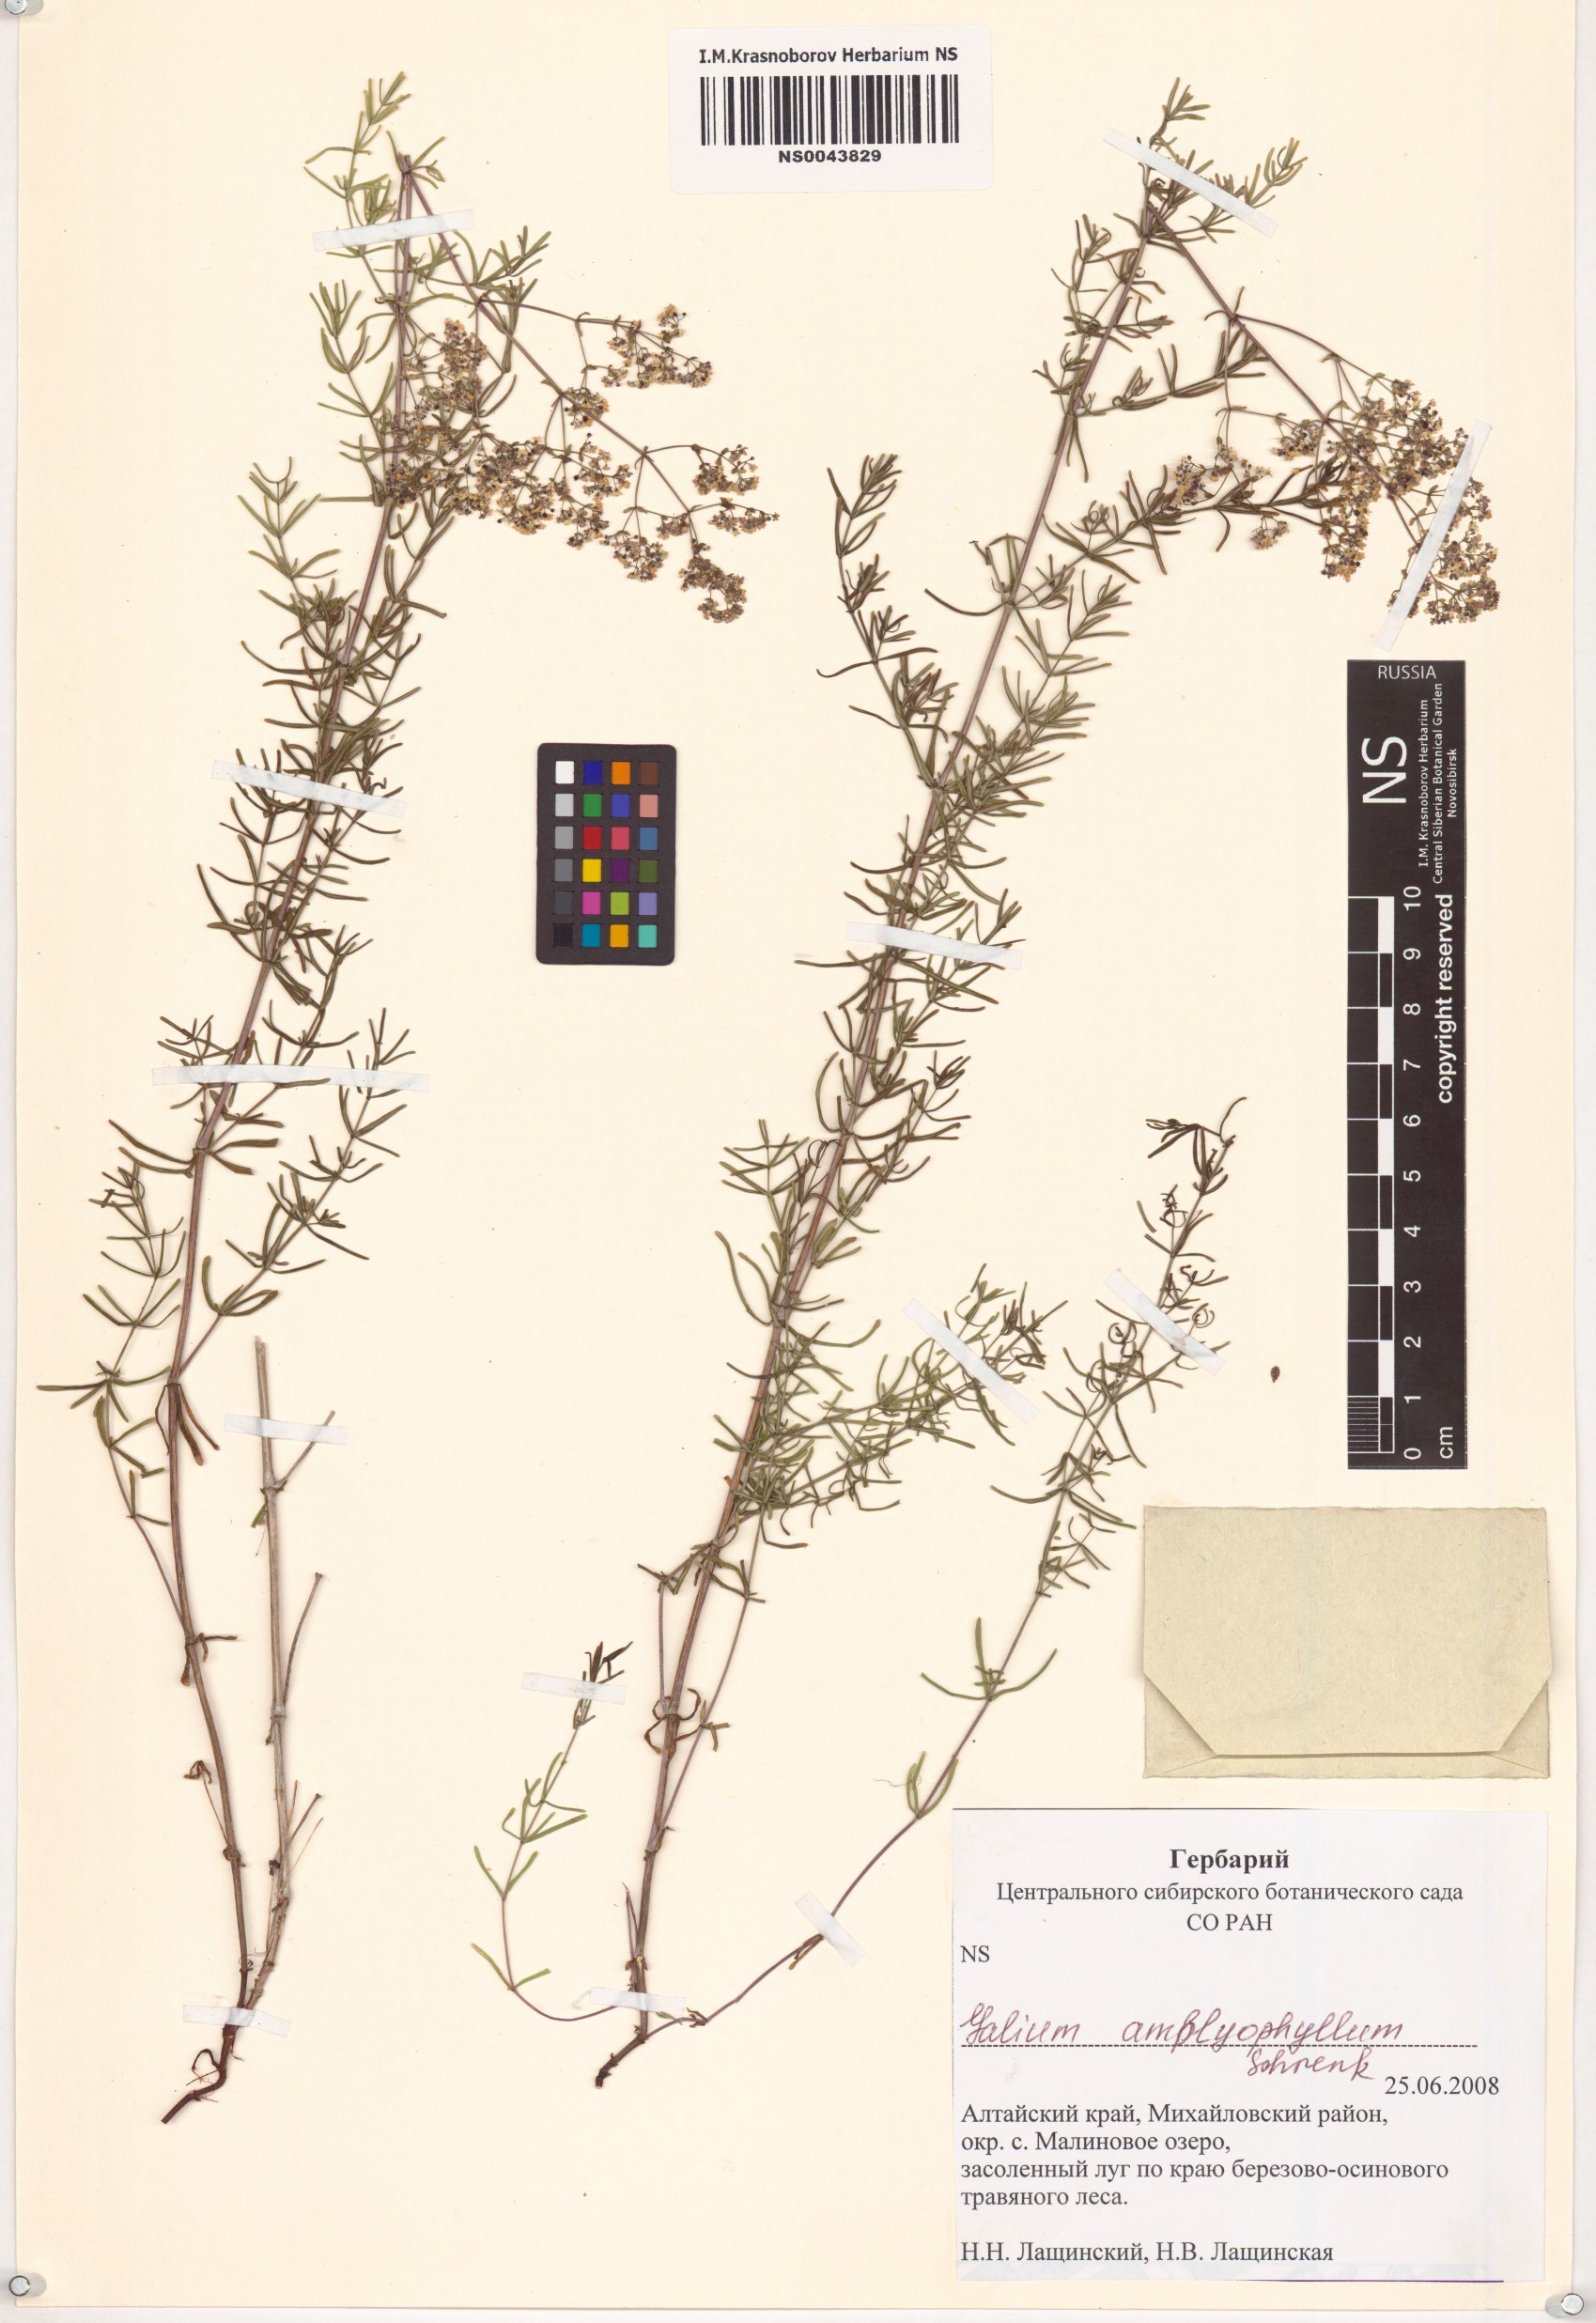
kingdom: Plantae
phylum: Tracheophyta
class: Magnoliopsida
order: Gentianales
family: Rubiaceae
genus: Galium
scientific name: Galium amblyophyllum
